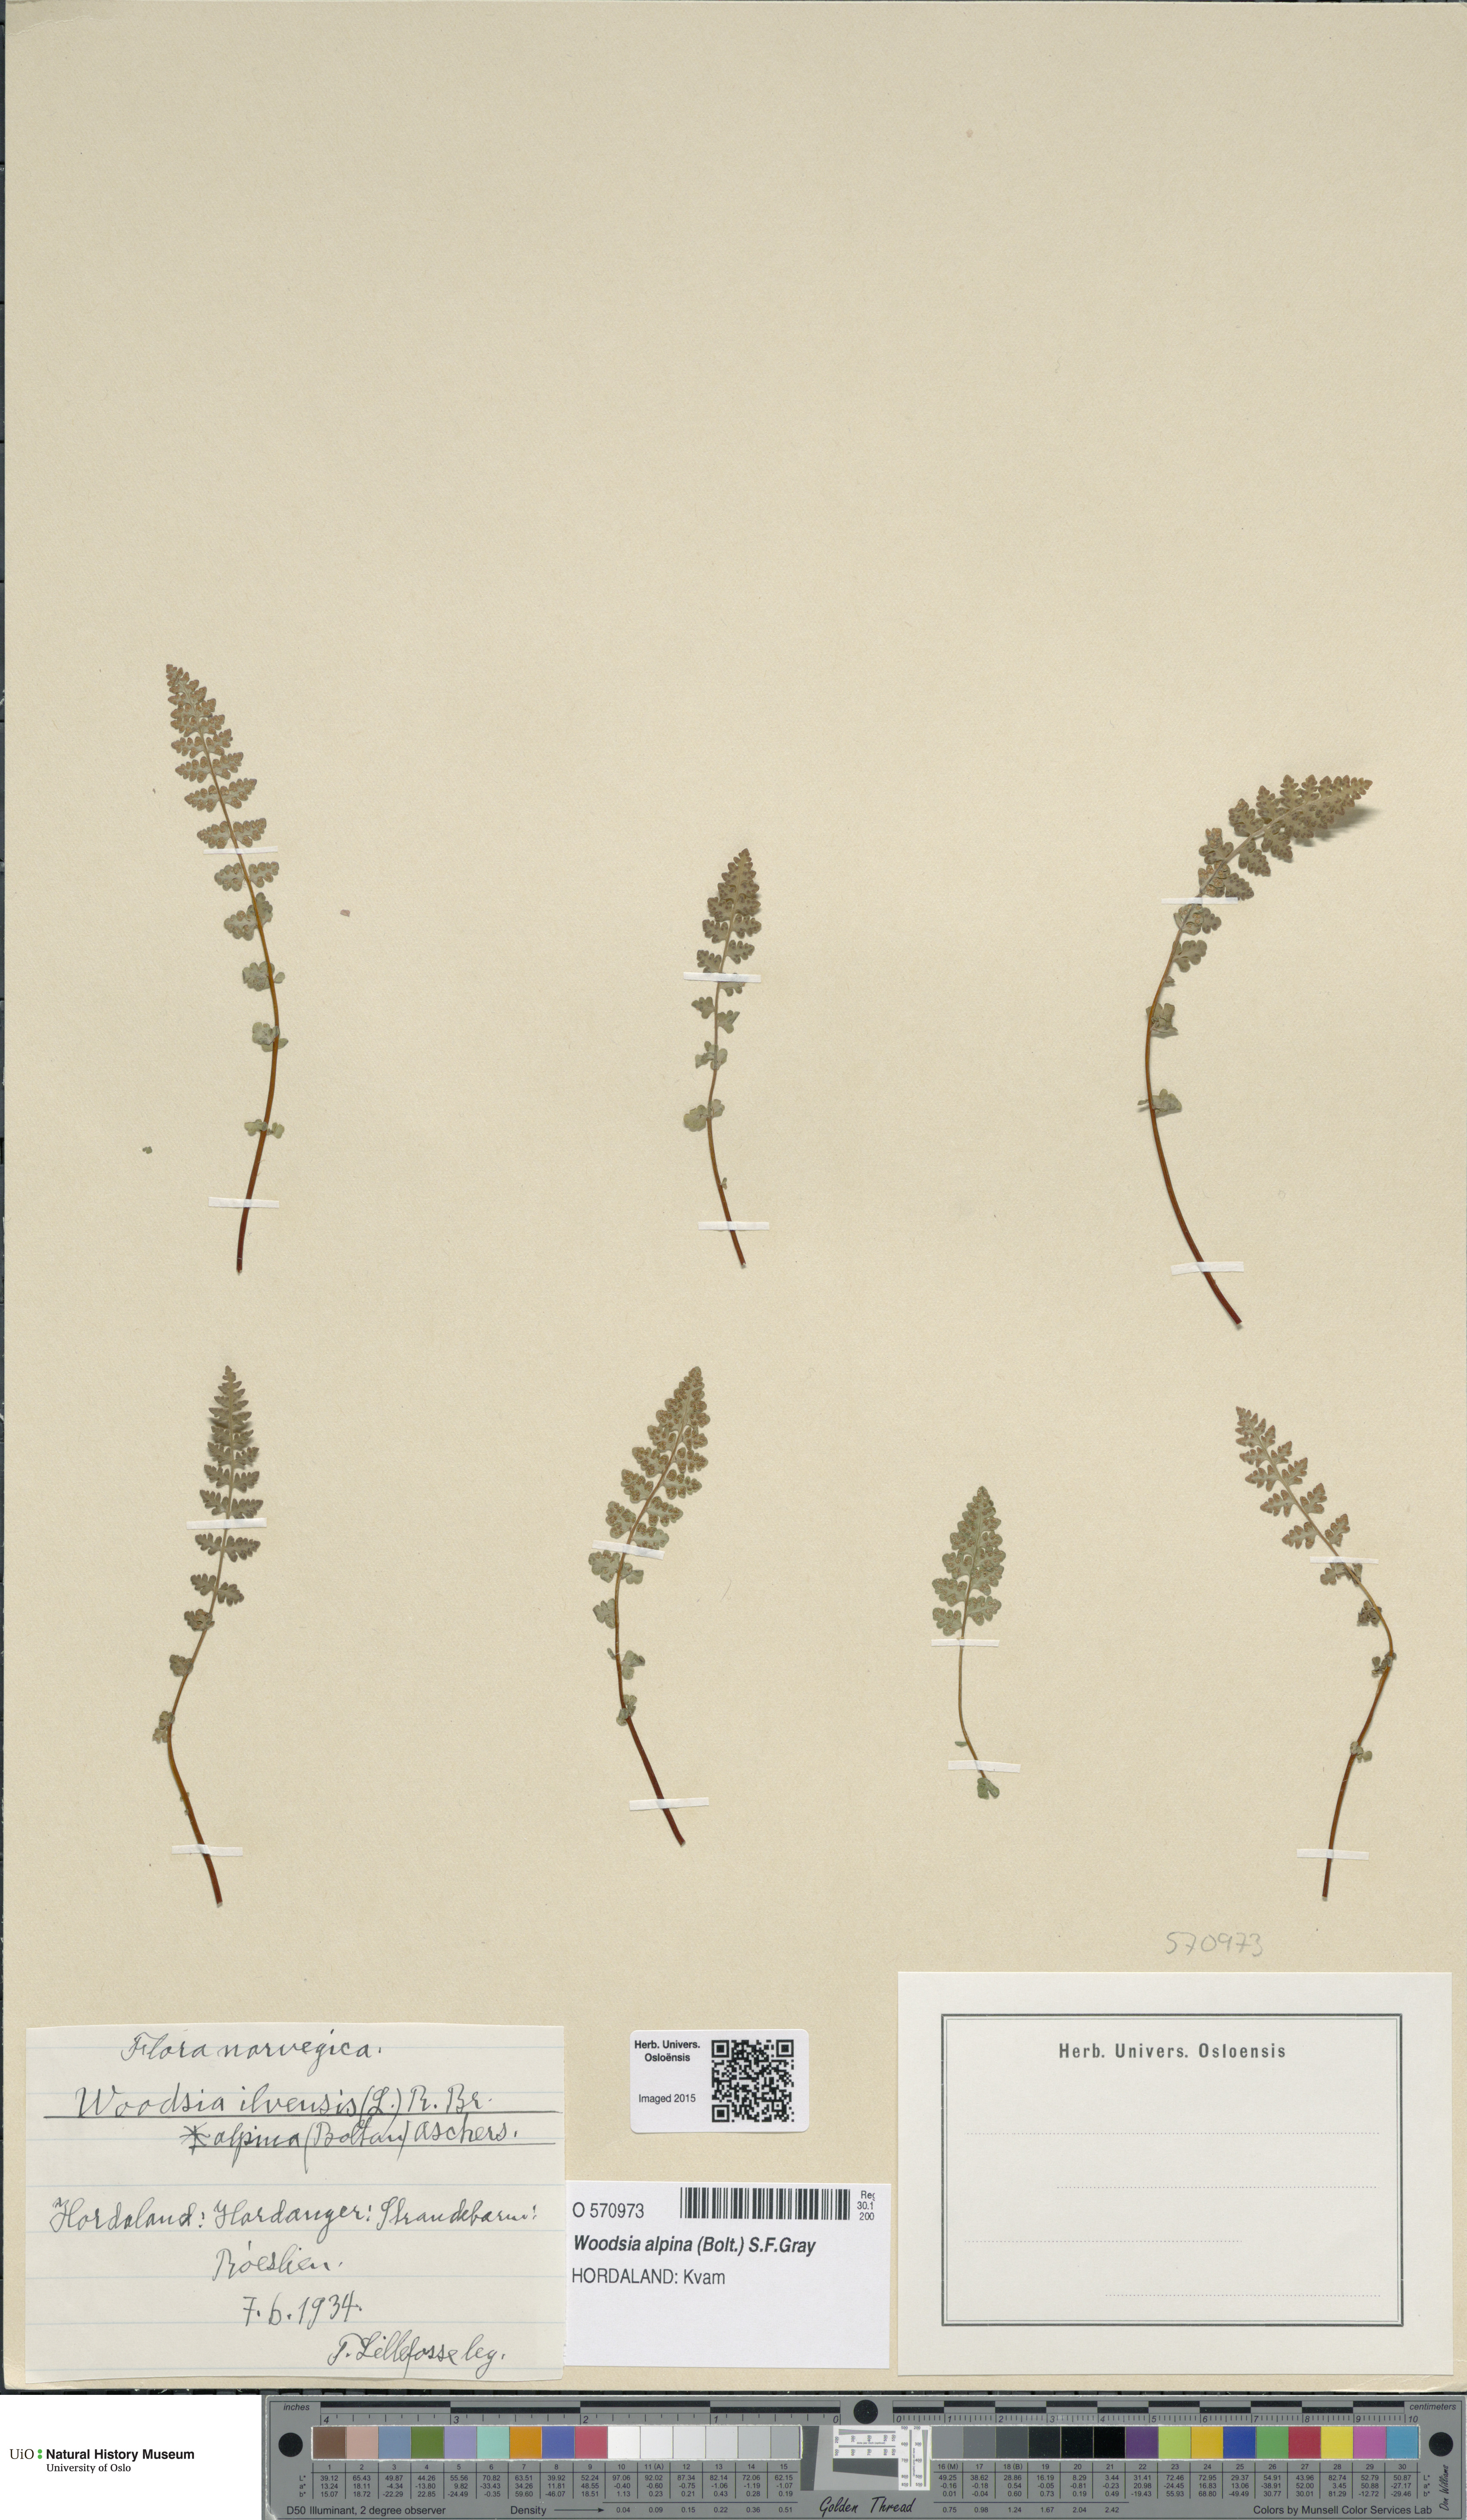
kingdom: Plantae
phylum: Tracheophyta
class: Polypodiopsida
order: Polypodiales
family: Woodsiaceae
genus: Woodsia
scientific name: Woodsia alpina
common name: Alpine woodsia
